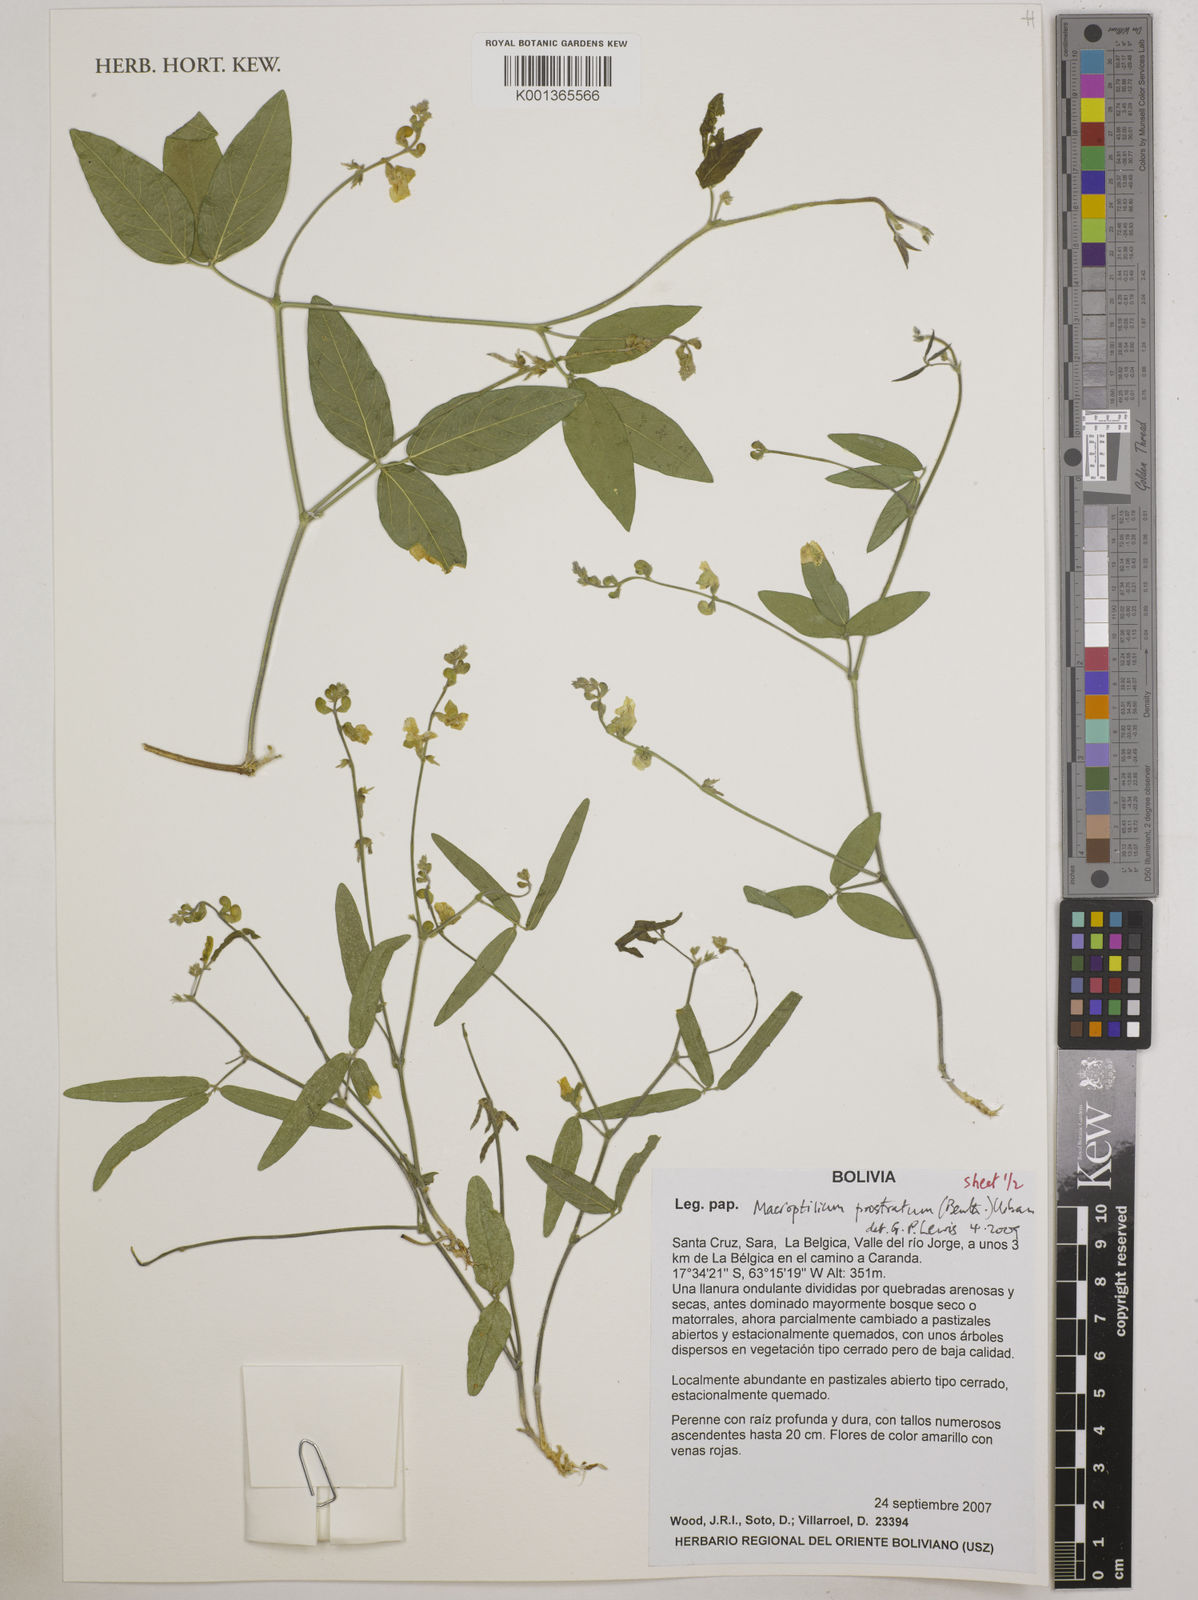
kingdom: Plantae
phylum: Tracheophyta
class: Magnoliopsida
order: Fabales
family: Fabaceae
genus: Macroptilium
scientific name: Macroptilium prostratum
